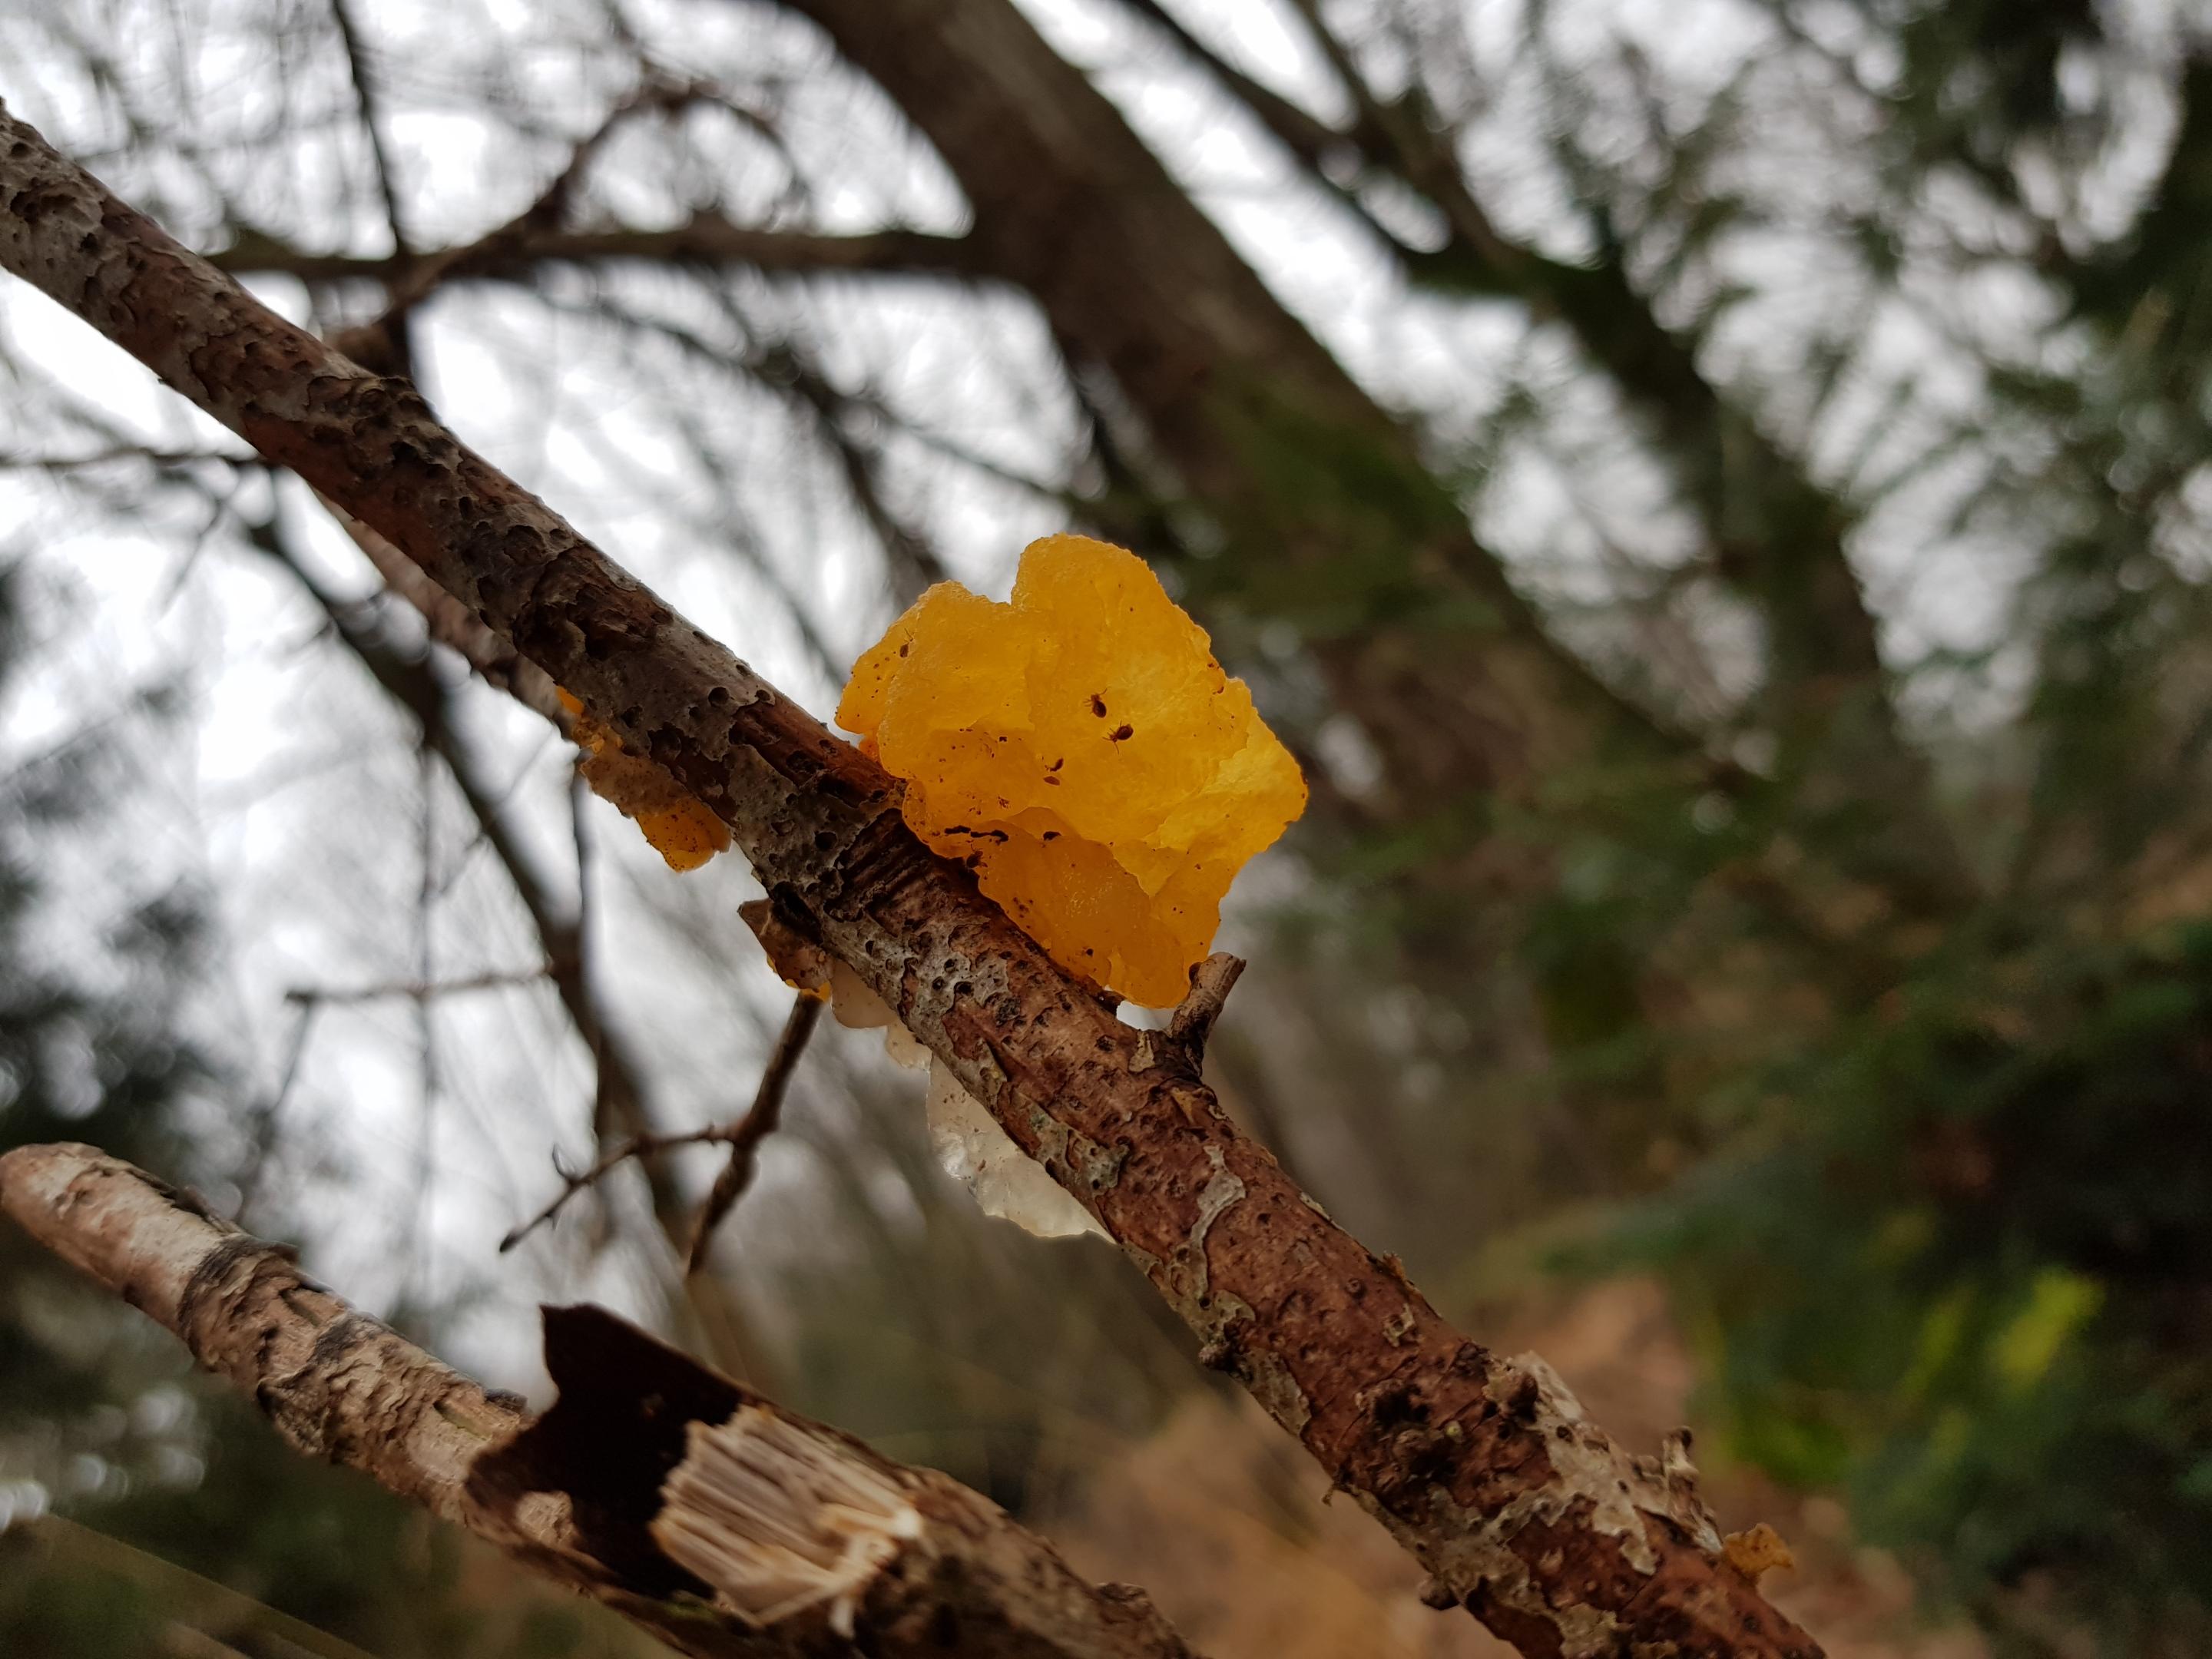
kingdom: Fungi
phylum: Basidiomycota
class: Tremellomycetes
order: Tremellales
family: Tremellaceae
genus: Tremella
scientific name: Tremella mesenterica
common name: gul bævresvamp
